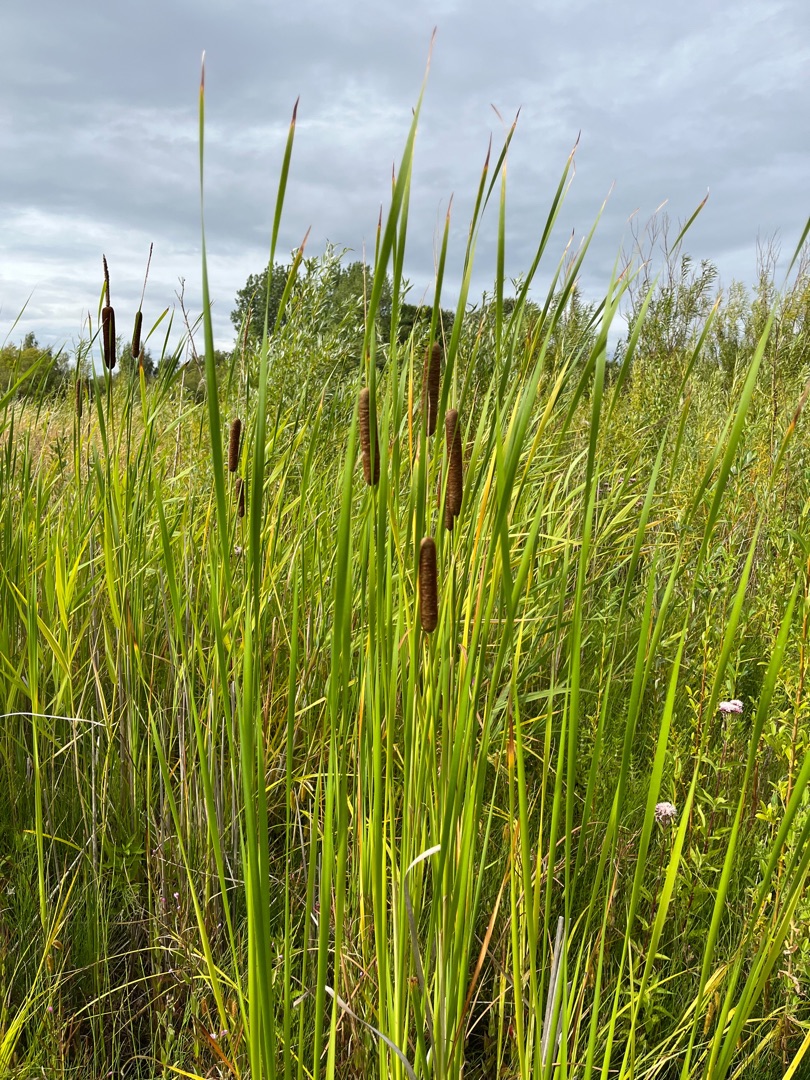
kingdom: Plantae
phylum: Tracheophyta
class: Liliopsida
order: Poales
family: Typhaceae
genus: Typha
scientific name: Typha angustifolia
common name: Smalbladet dunhammer
